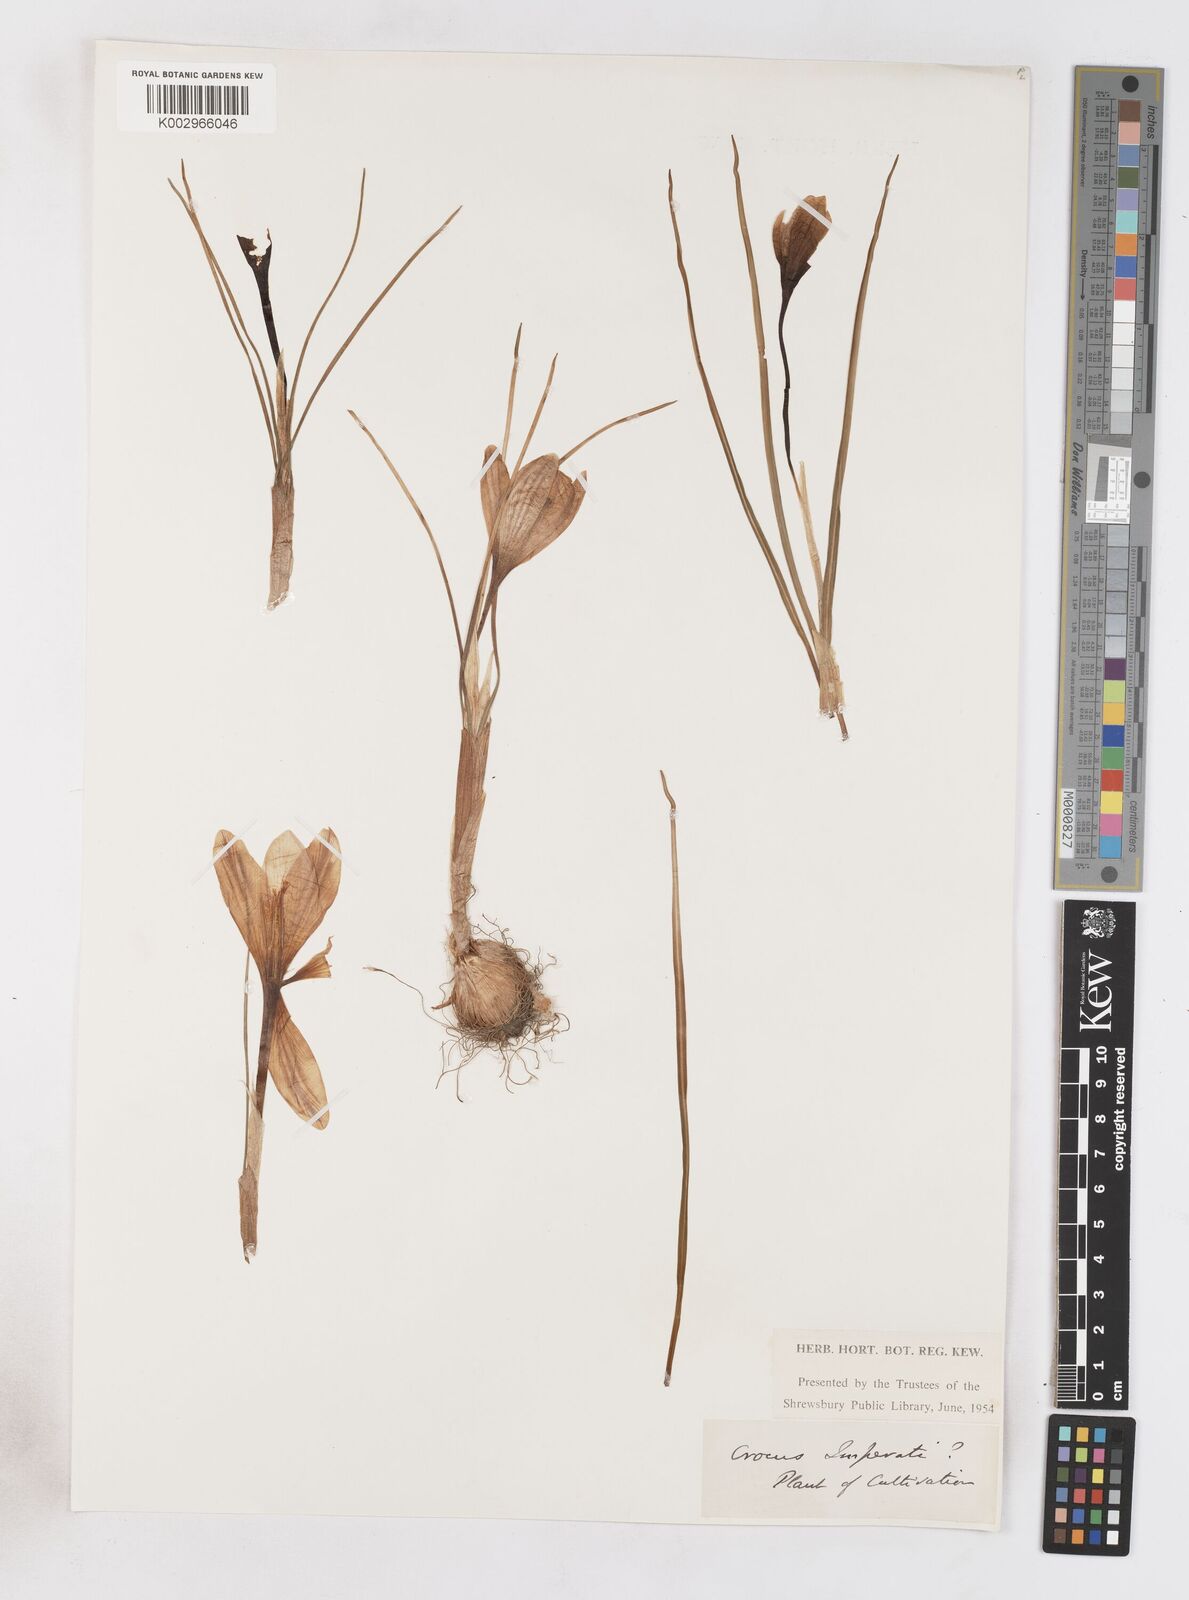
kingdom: Plantae
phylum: Tracheophyta
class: Liliopsida
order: Asparagales
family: Iridaceae
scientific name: Iridaceae
